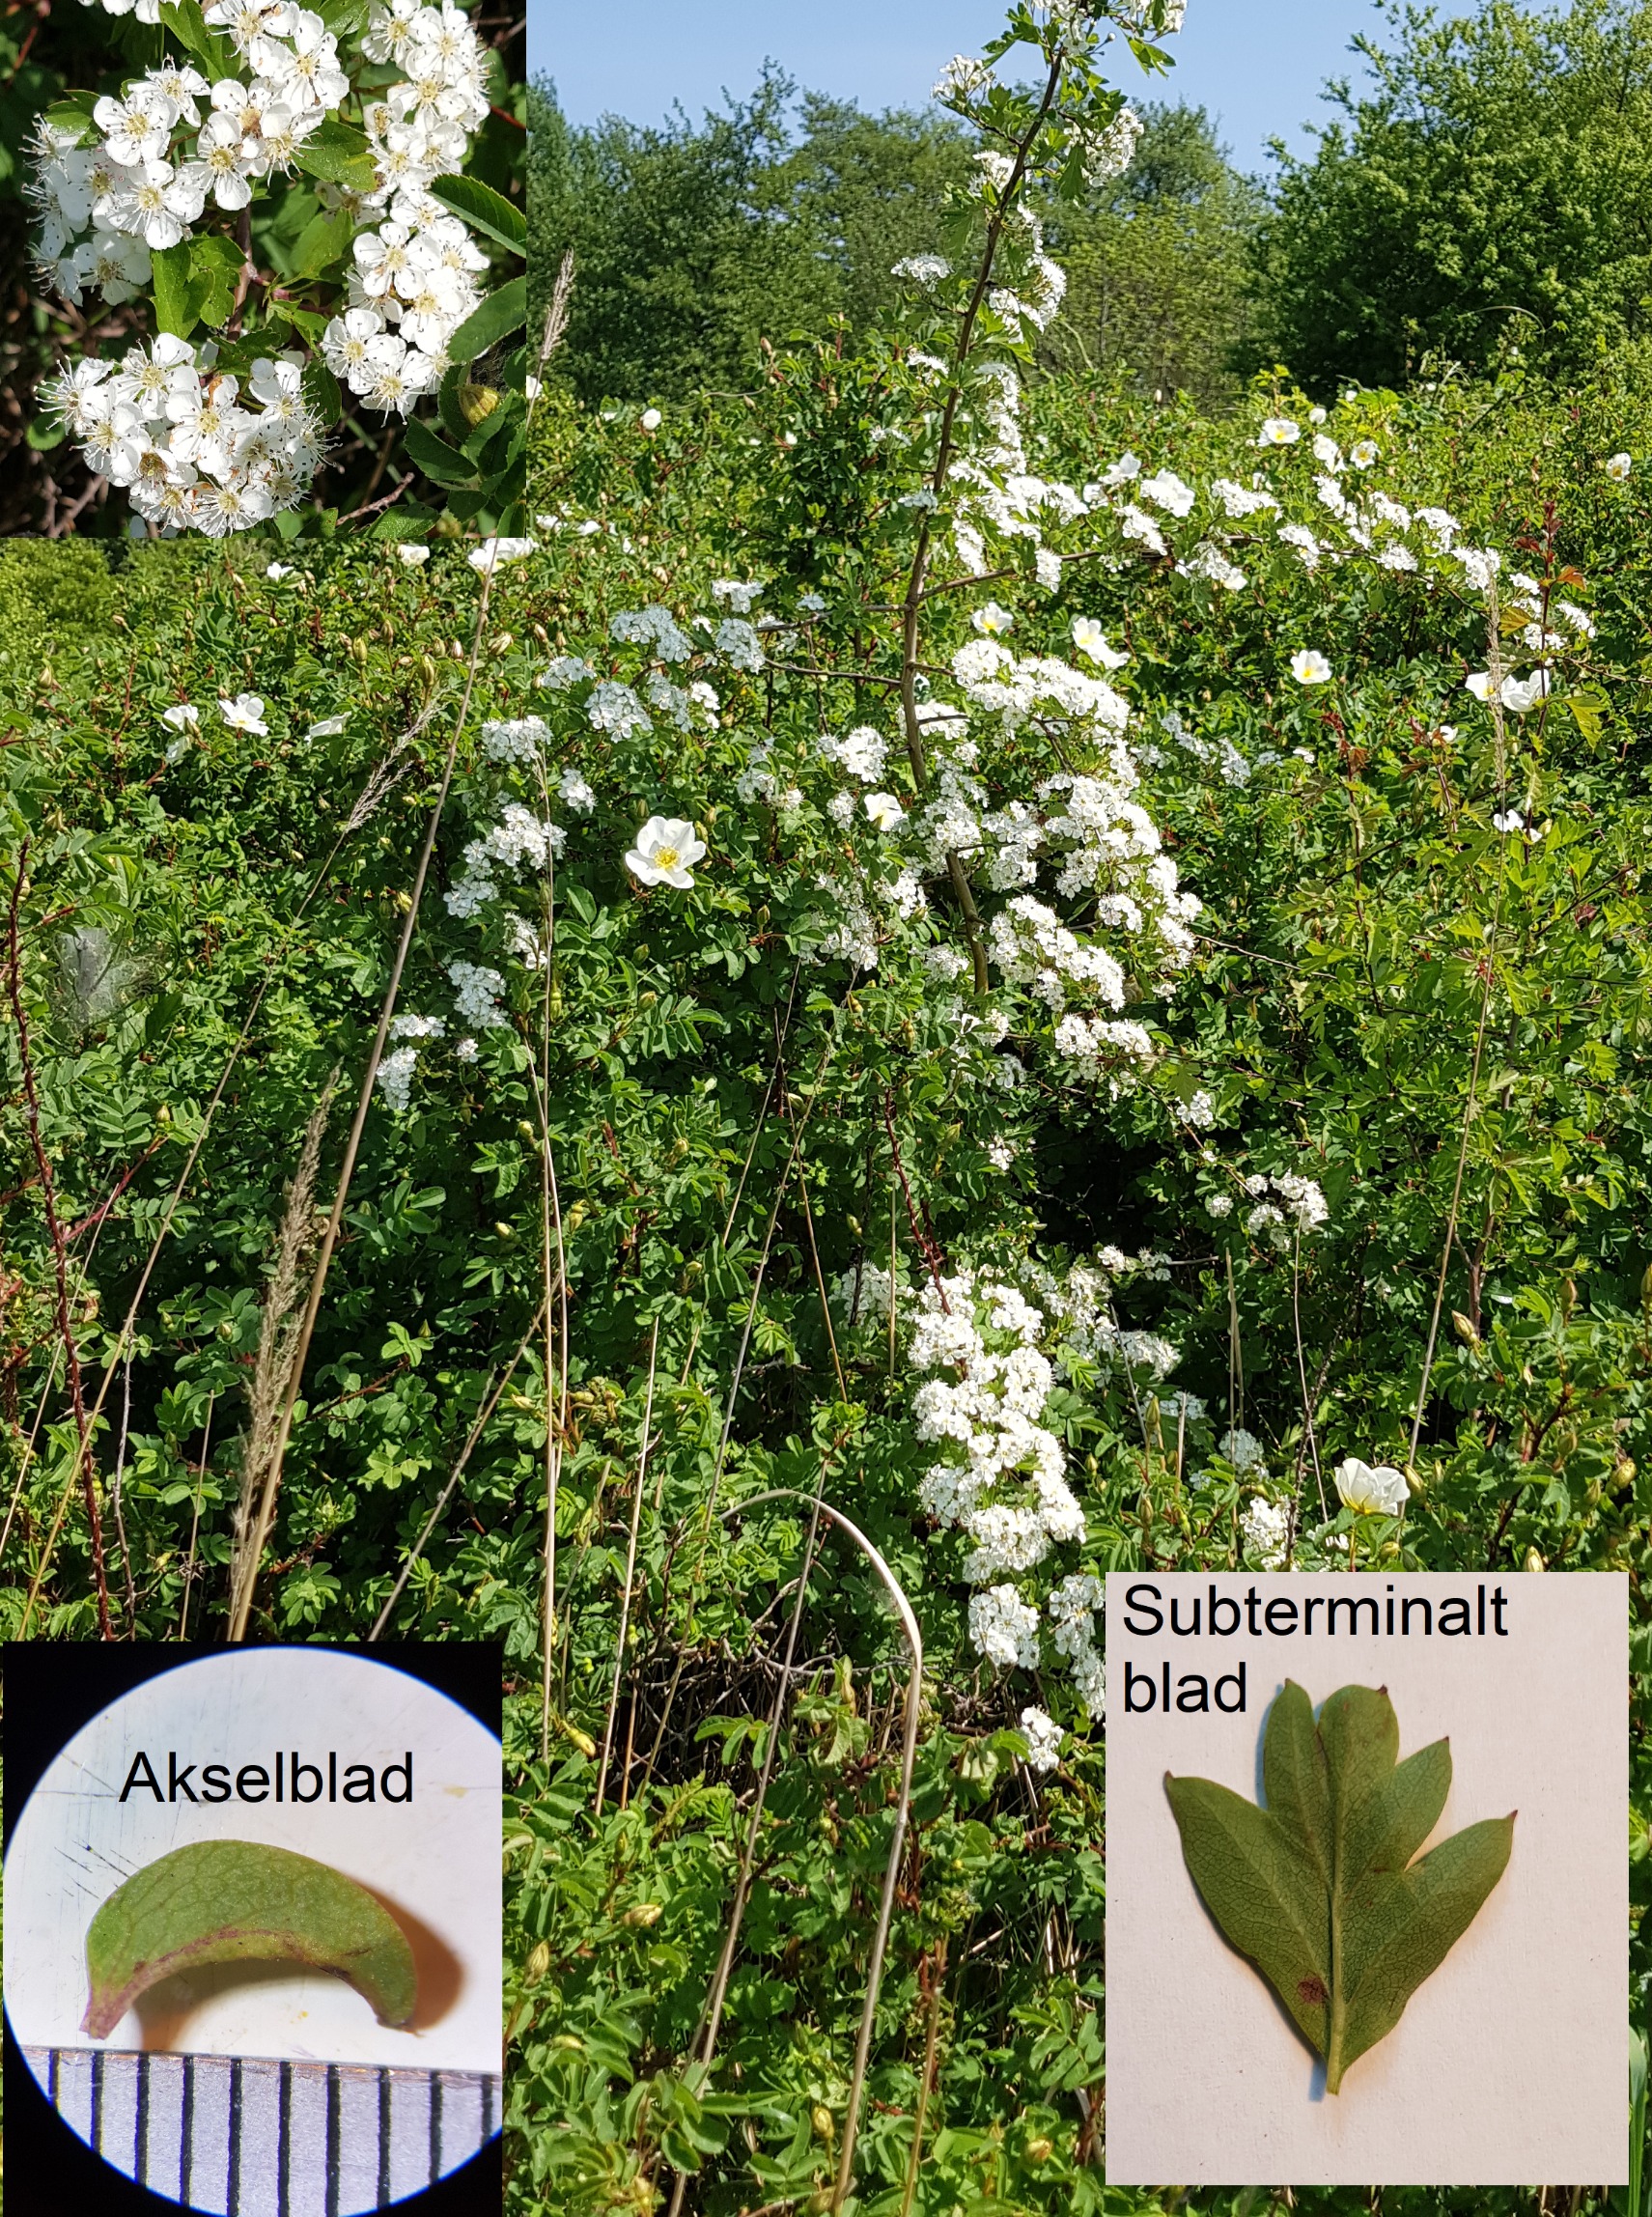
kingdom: Plantae
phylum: Tracheophyta
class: Magnoliopsida
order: Rosales
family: Rosaceae
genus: Crataegus
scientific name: Crataegus monogyna
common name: Engriflet hvidtjørn
